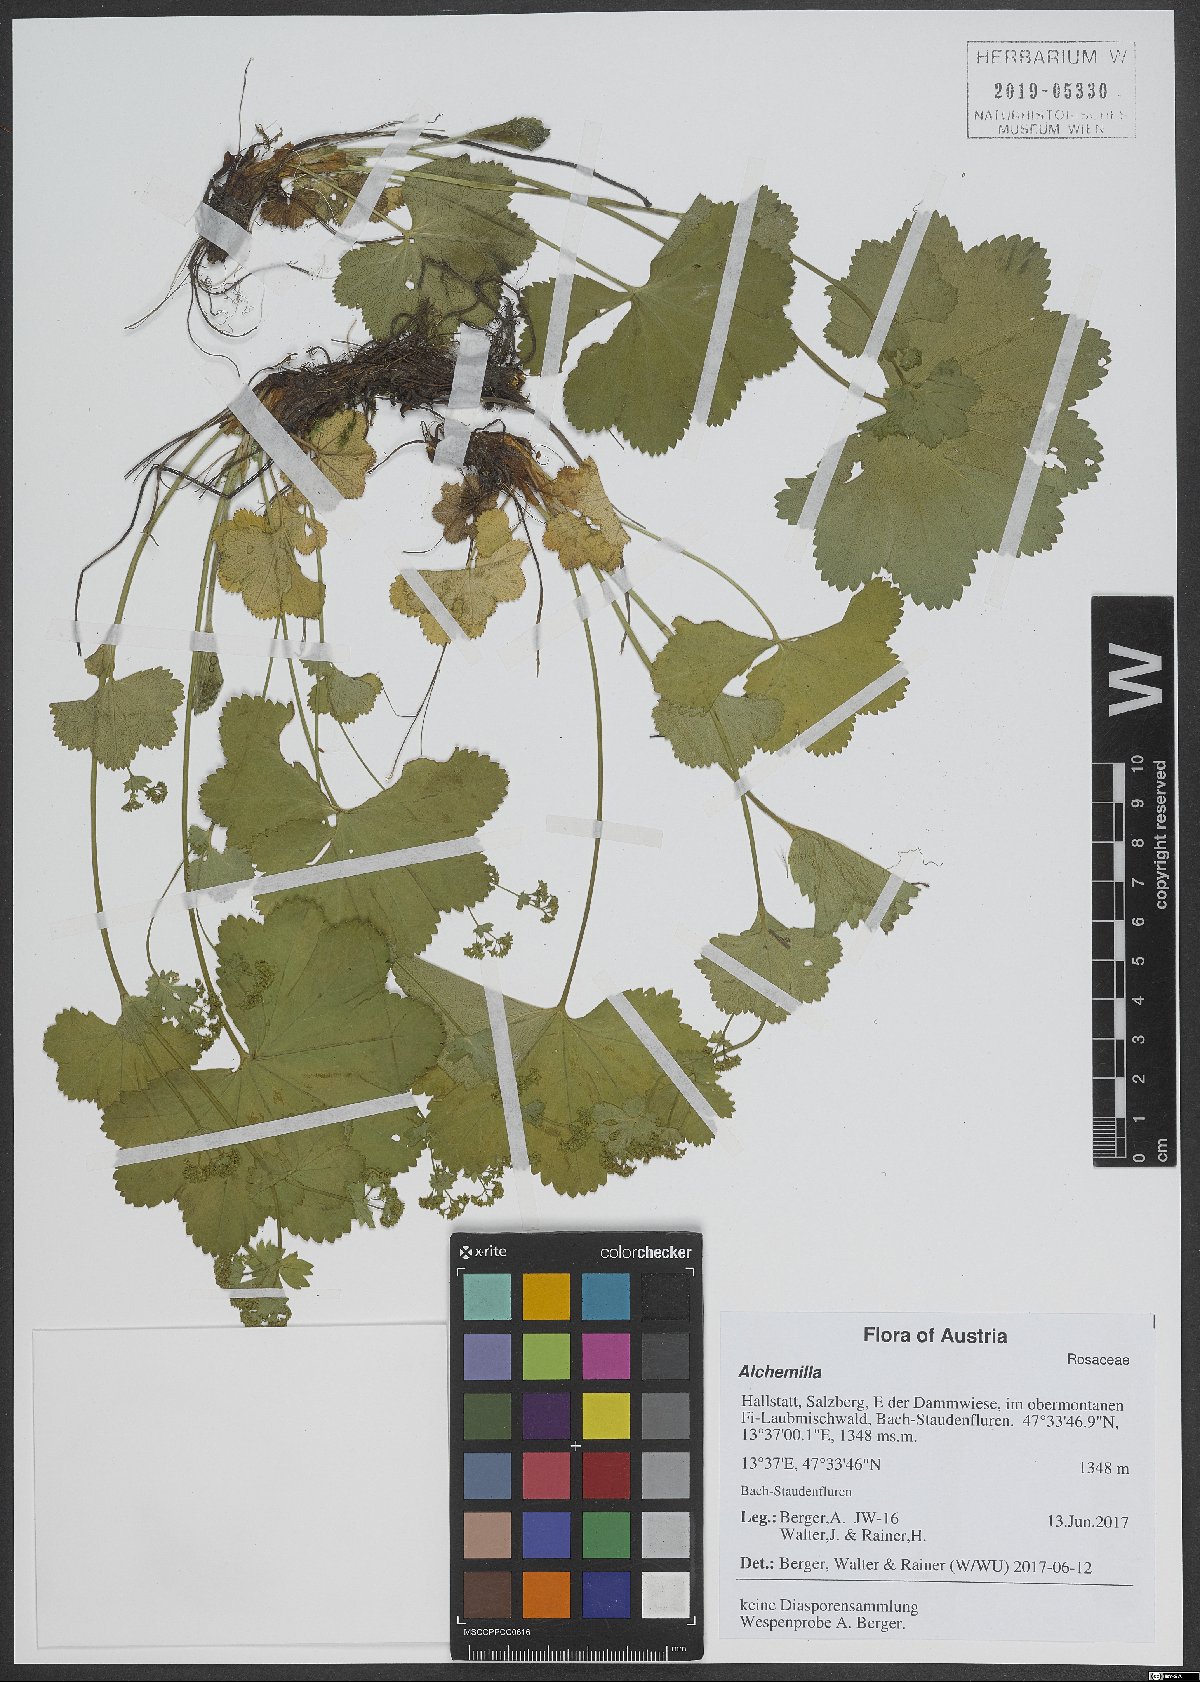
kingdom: Plantae
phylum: Tracheophyta
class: Magnoliopsida
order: Rosales
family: Rosaceae
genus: Alchemilla
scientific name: Alchemilla
